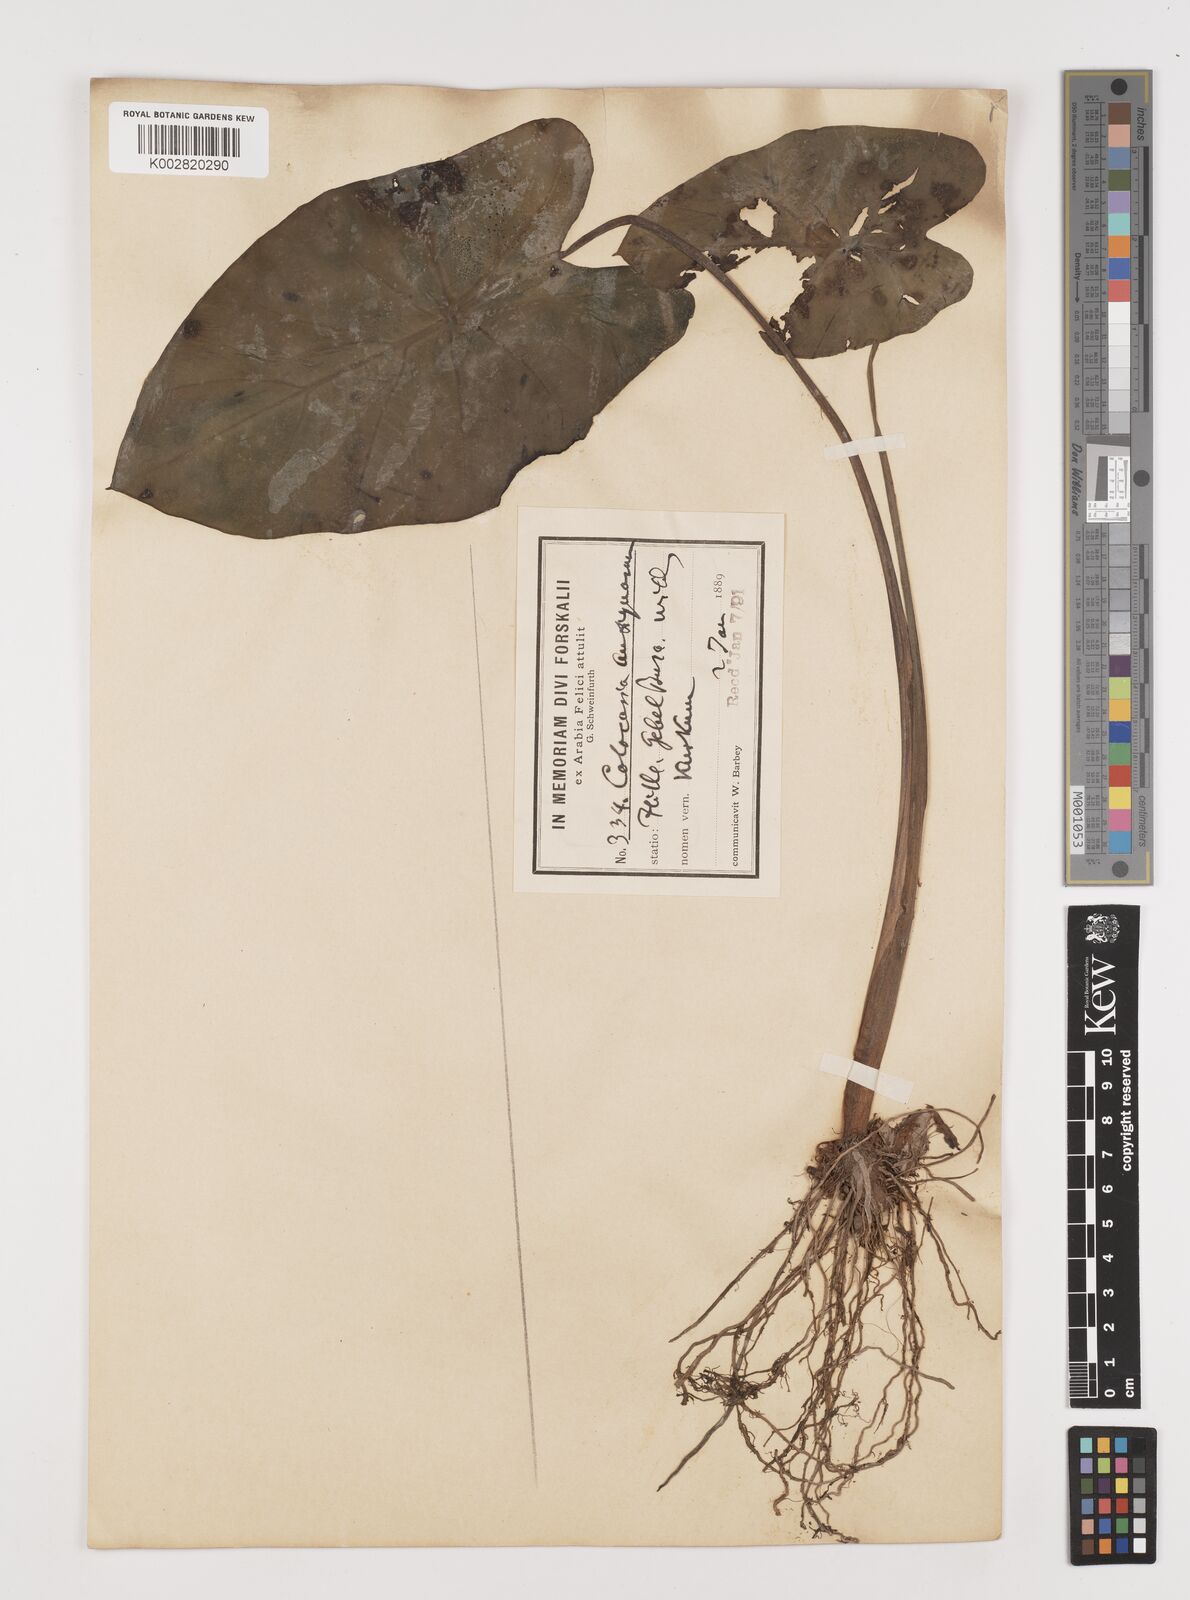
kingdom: Plantae
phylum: Tracheophyta
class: Liliopsida
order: Alismatales
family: Araceae
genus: Colocasia
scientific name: Colocasia esculenta
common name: Taro
